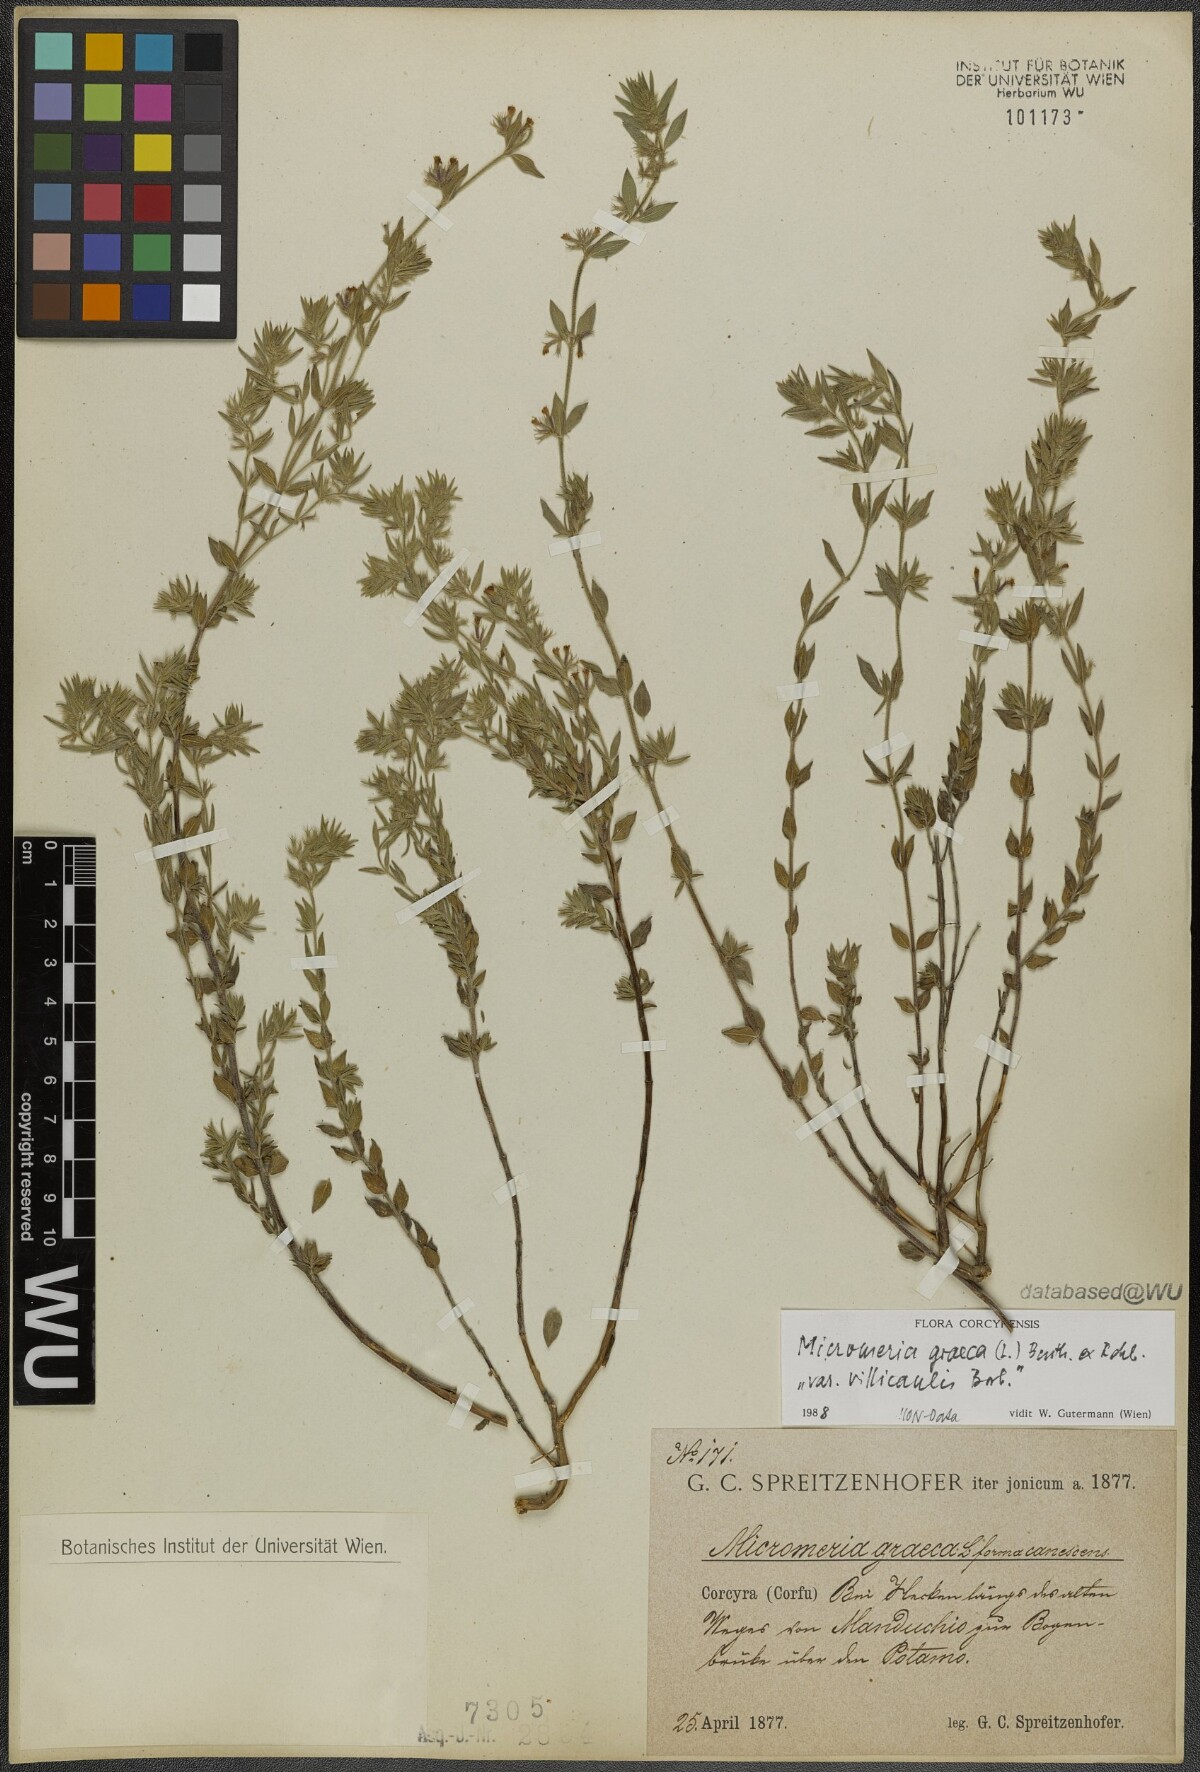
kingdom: Plantae
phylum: Tracheophyta
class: Magnoliopsida
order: Lamiales
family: Lamiaceae
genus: Micromeria
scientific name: Micromeria graeca
